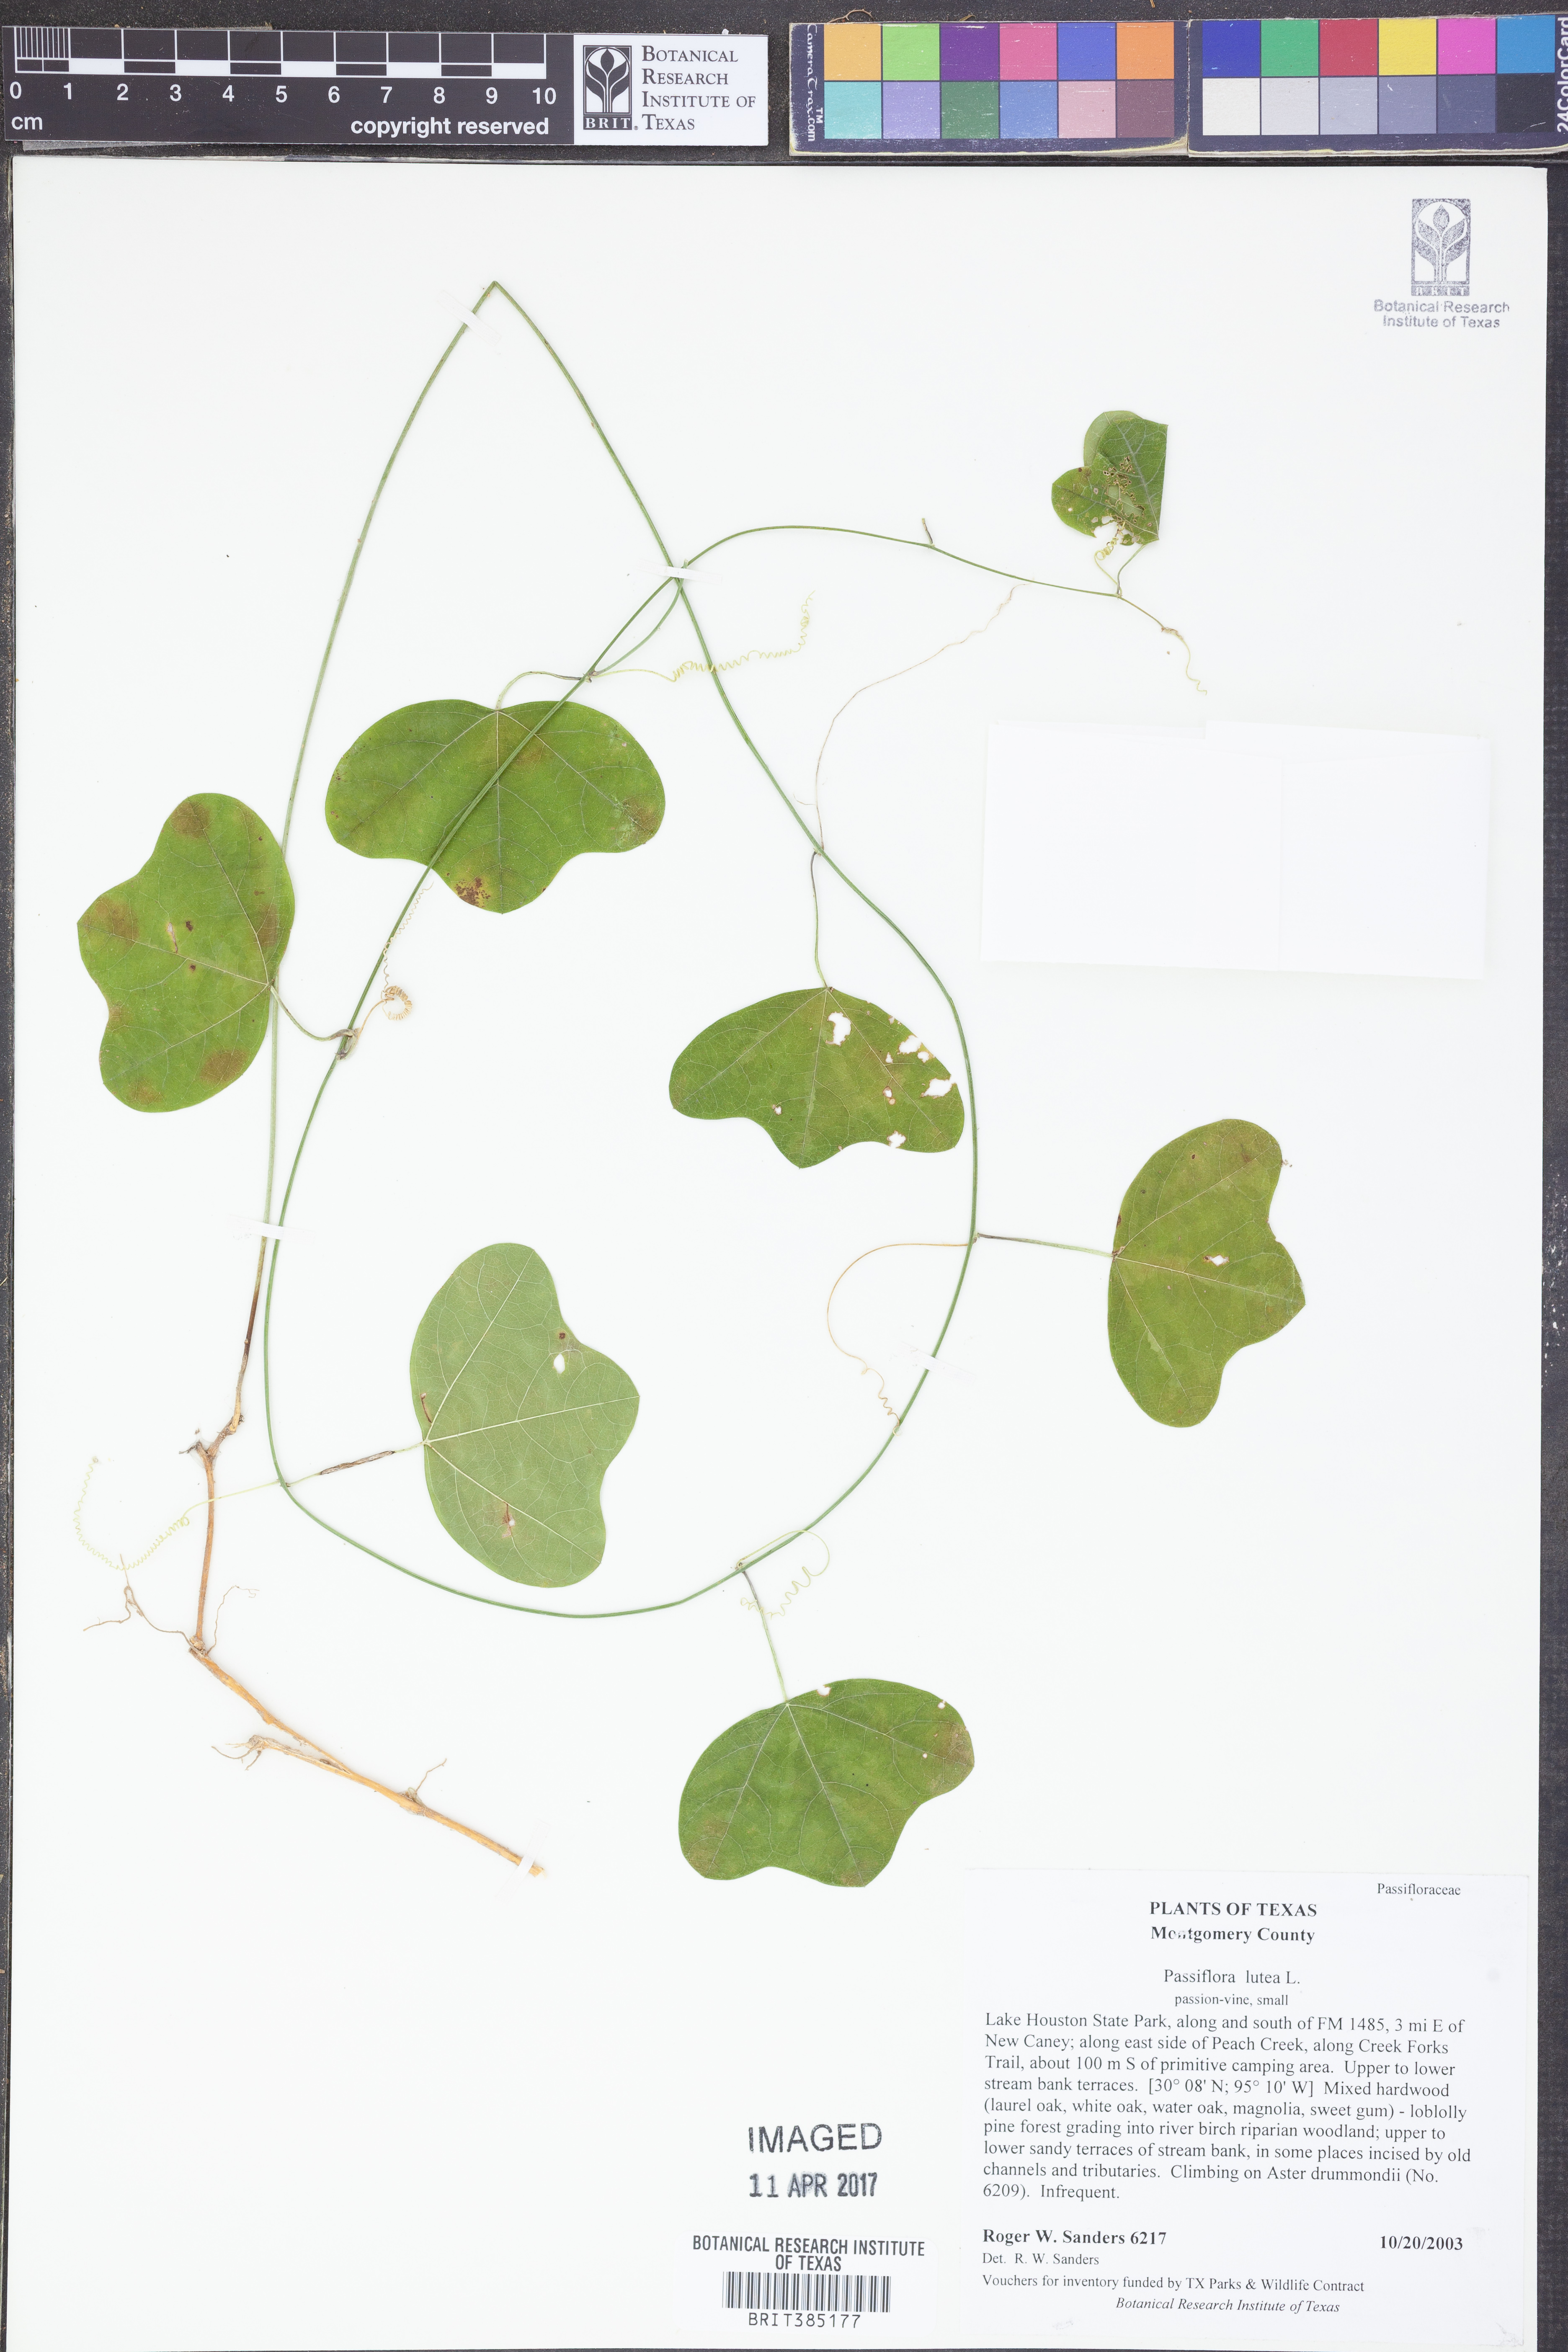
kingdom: Plantae
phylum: Tracheophyta
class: Magnoliopsida
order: Malpighiales
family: Passifloraceae
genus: Passiflora
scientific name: Passiflora lutea
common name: Yellow passionflower
